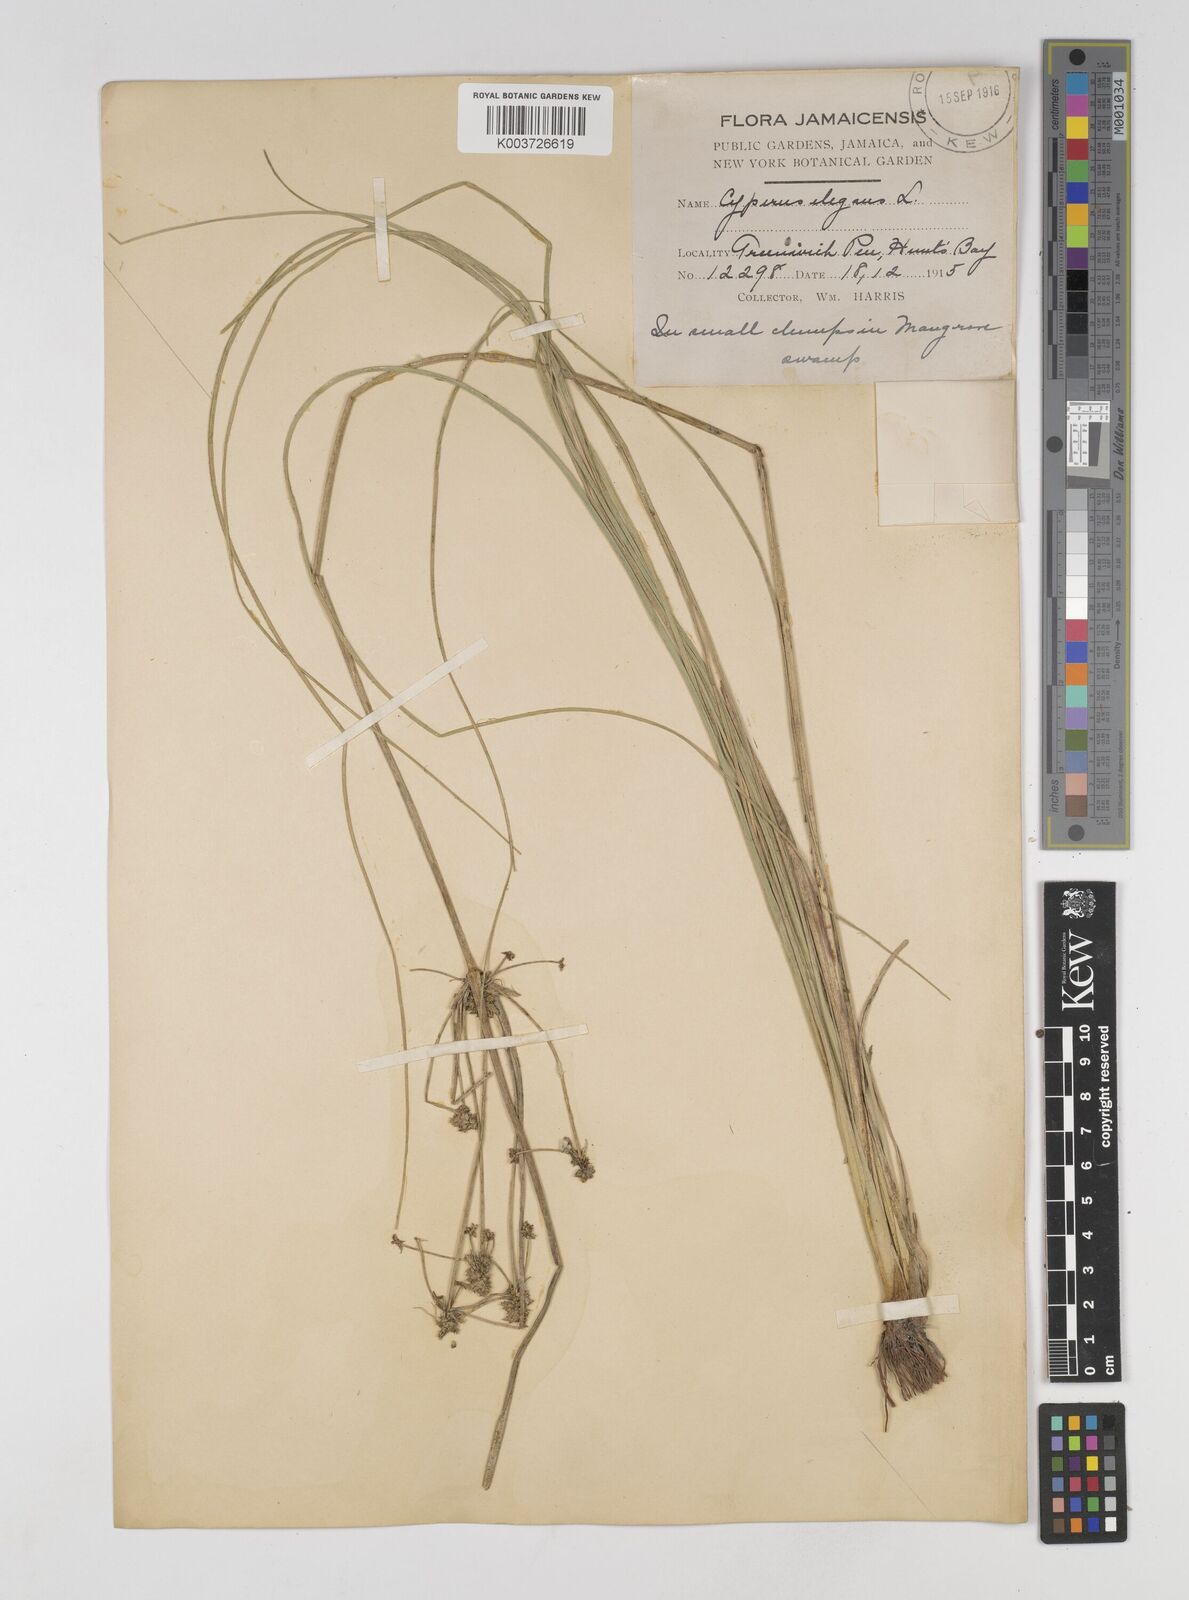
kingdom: Plantae
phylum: Tracheophyta
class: Liliopsida
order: Poales
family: Cyperaceae
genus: Cyperus
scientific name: Cyperus elegans
